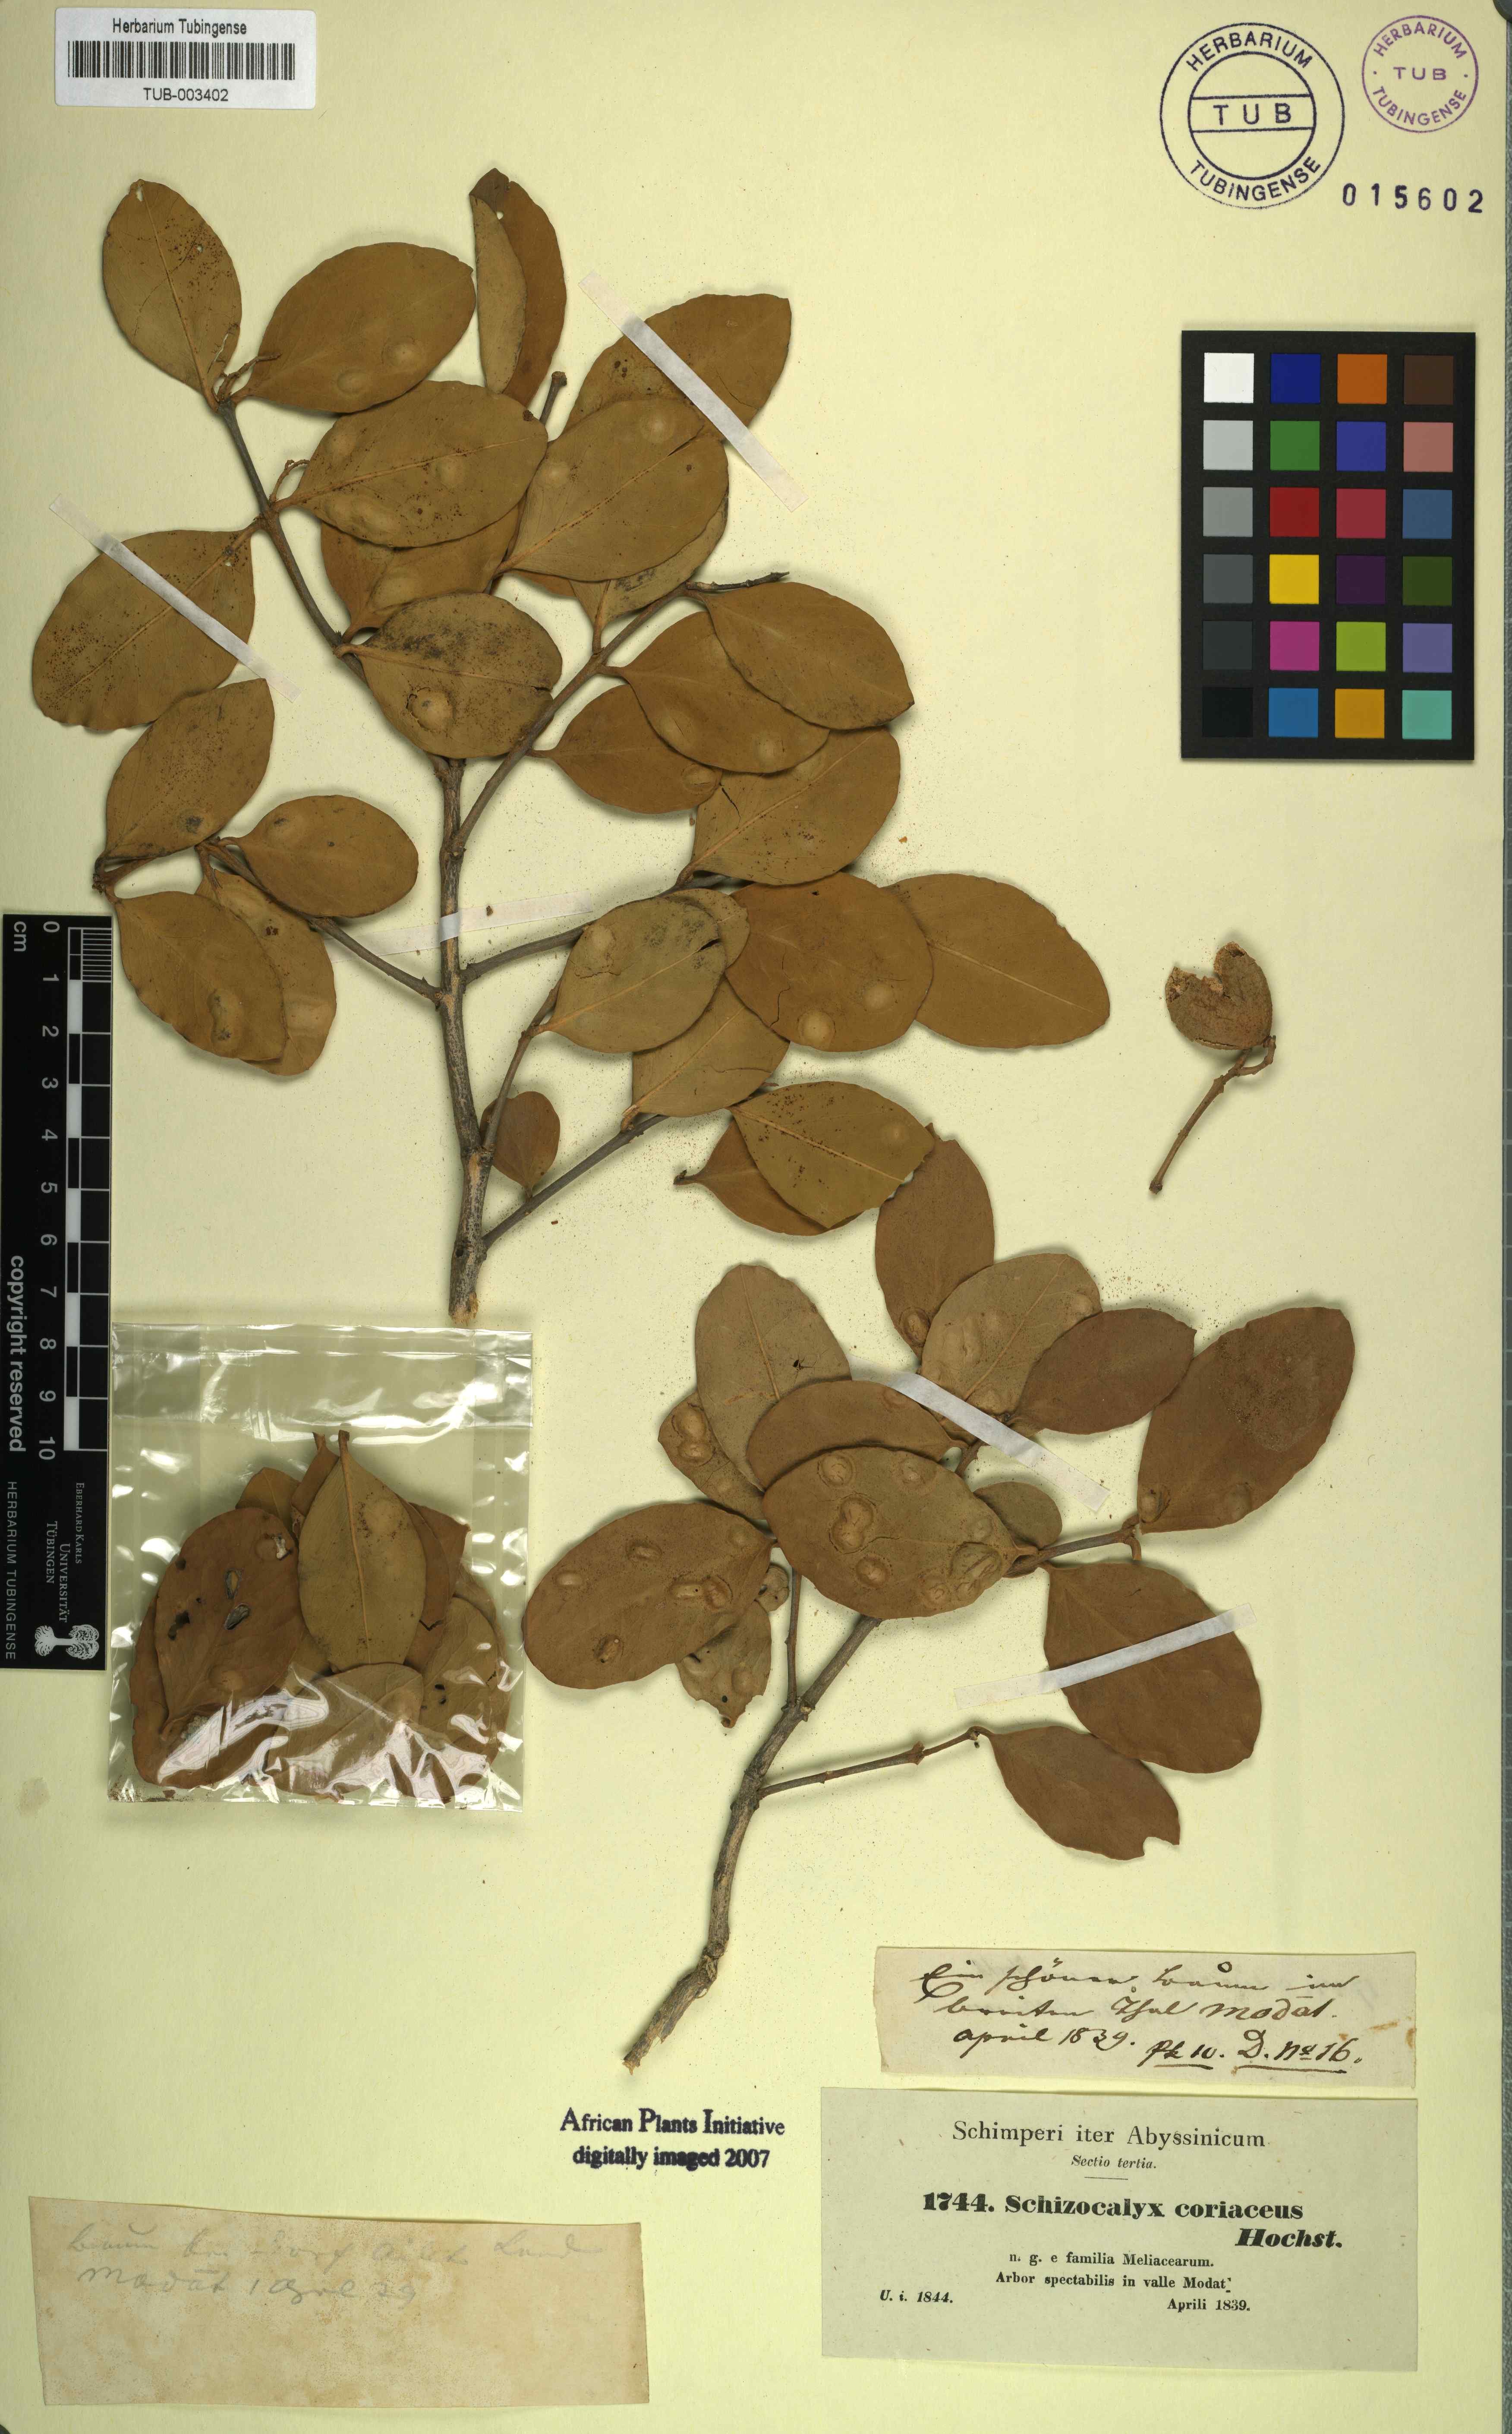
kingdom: Plantae
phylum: Tracheophyta
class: Magnoliopsida
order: Sapindales
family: Anacardiaceae
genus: Nothopegia
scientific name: Nothopegia colebrookeana
